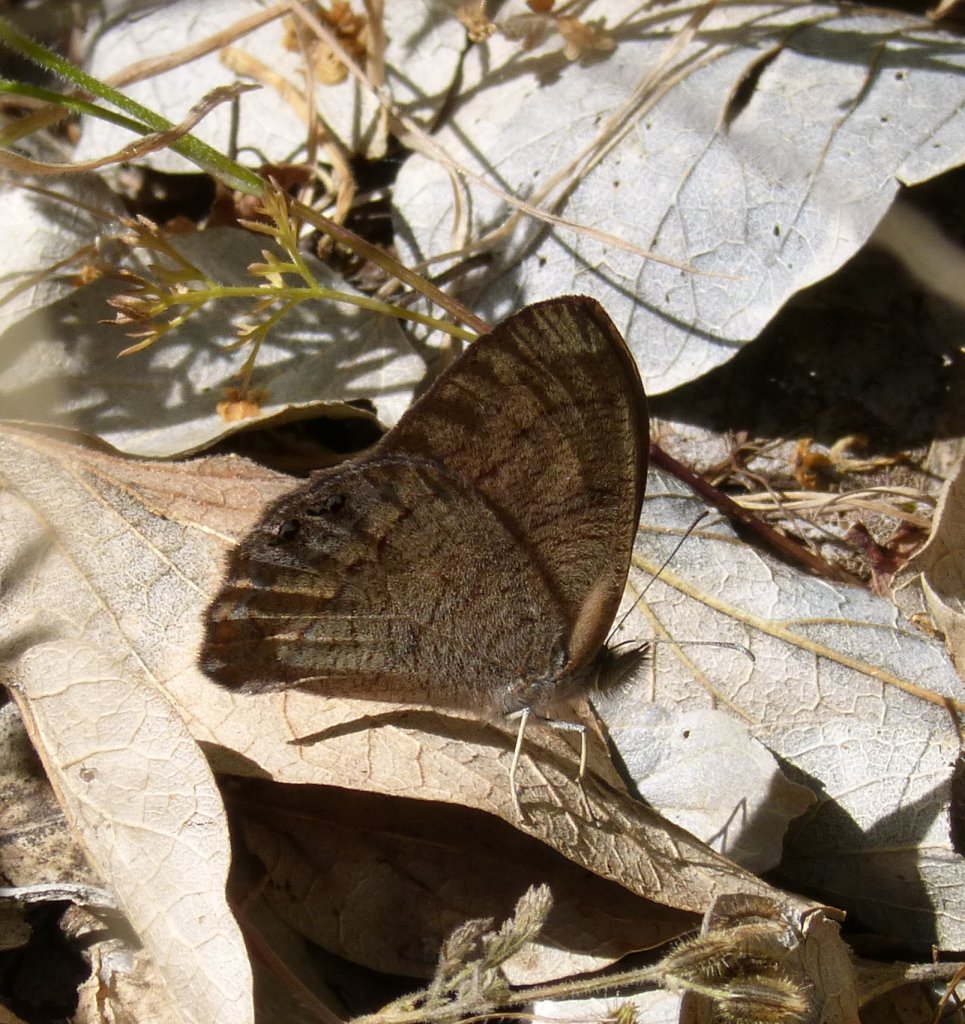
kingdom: Animalia
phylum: Arthropoda
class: Insecta
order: Lepidoptera
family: Nymphalidae
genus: Euptychia
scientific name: Euptychia pyracmon
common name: Nabokov's Satyr
